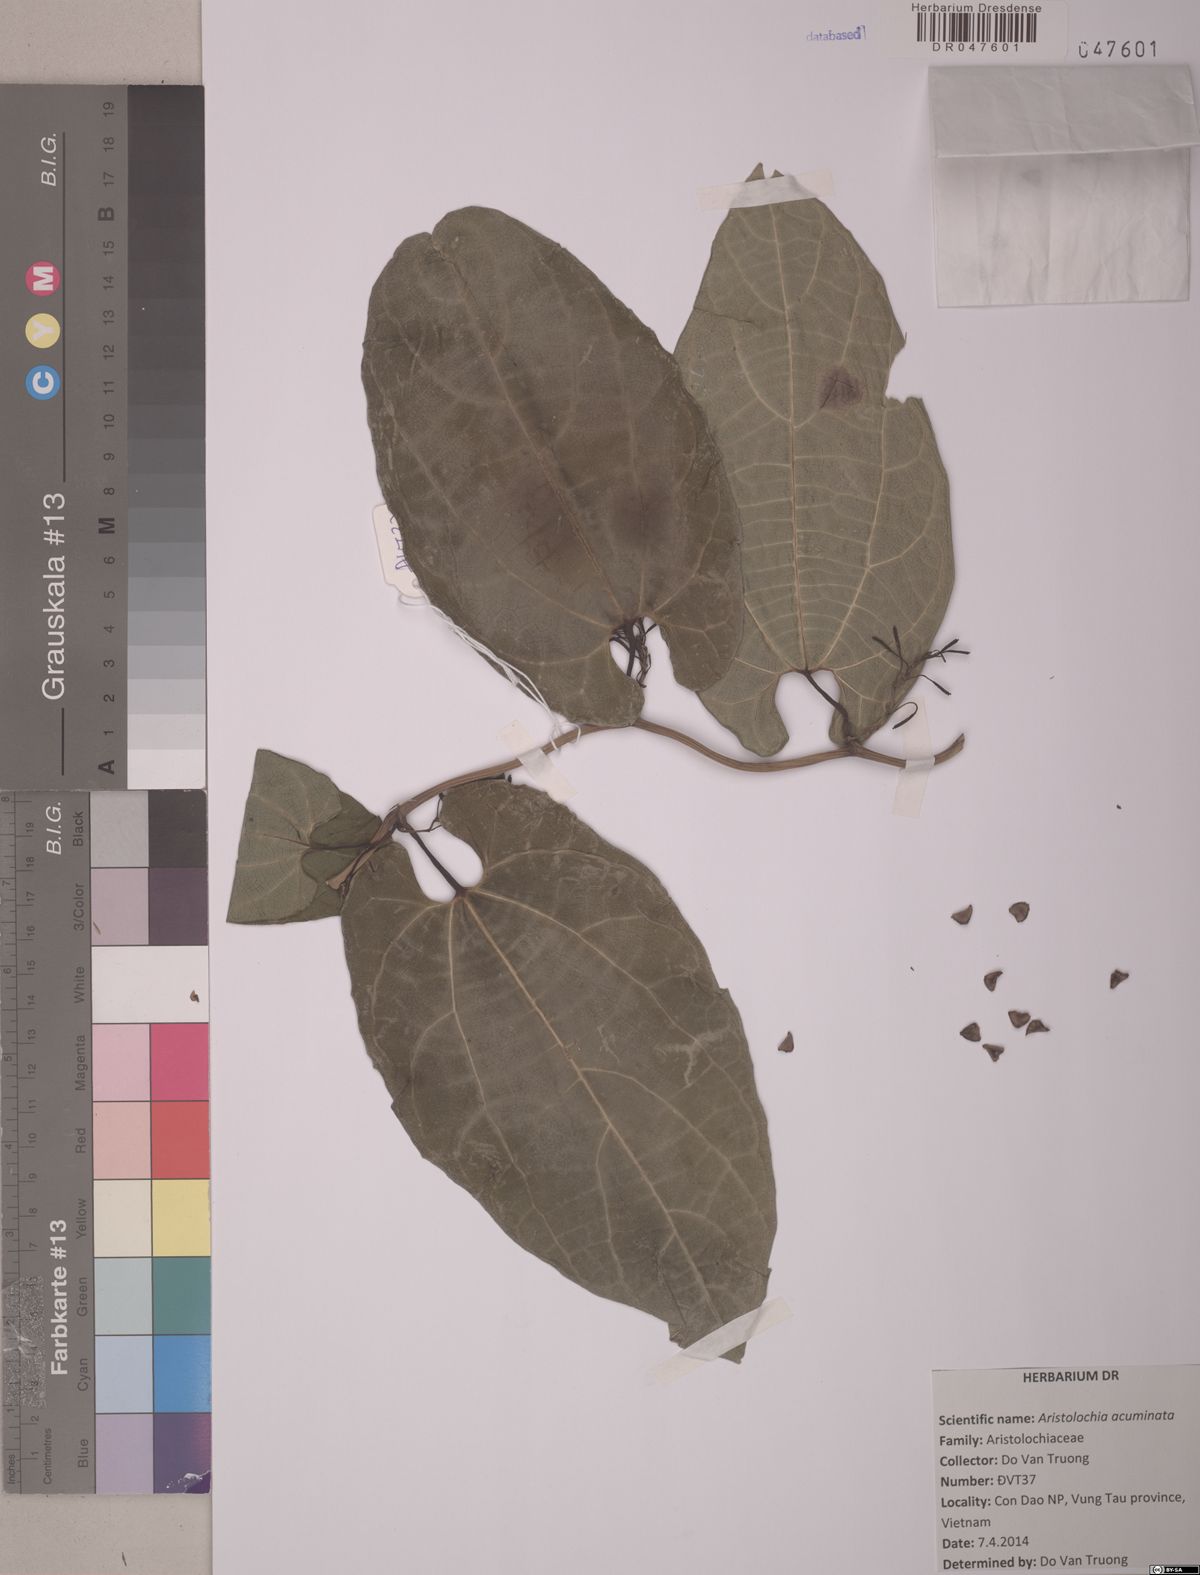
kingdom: Plantae
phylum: Tracheophyta
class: Magnoliopsida
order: Piperales
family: Aristolochiaceae
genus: Aristolochia
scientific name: Aristolochia acuminata
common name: Indian birthwort
